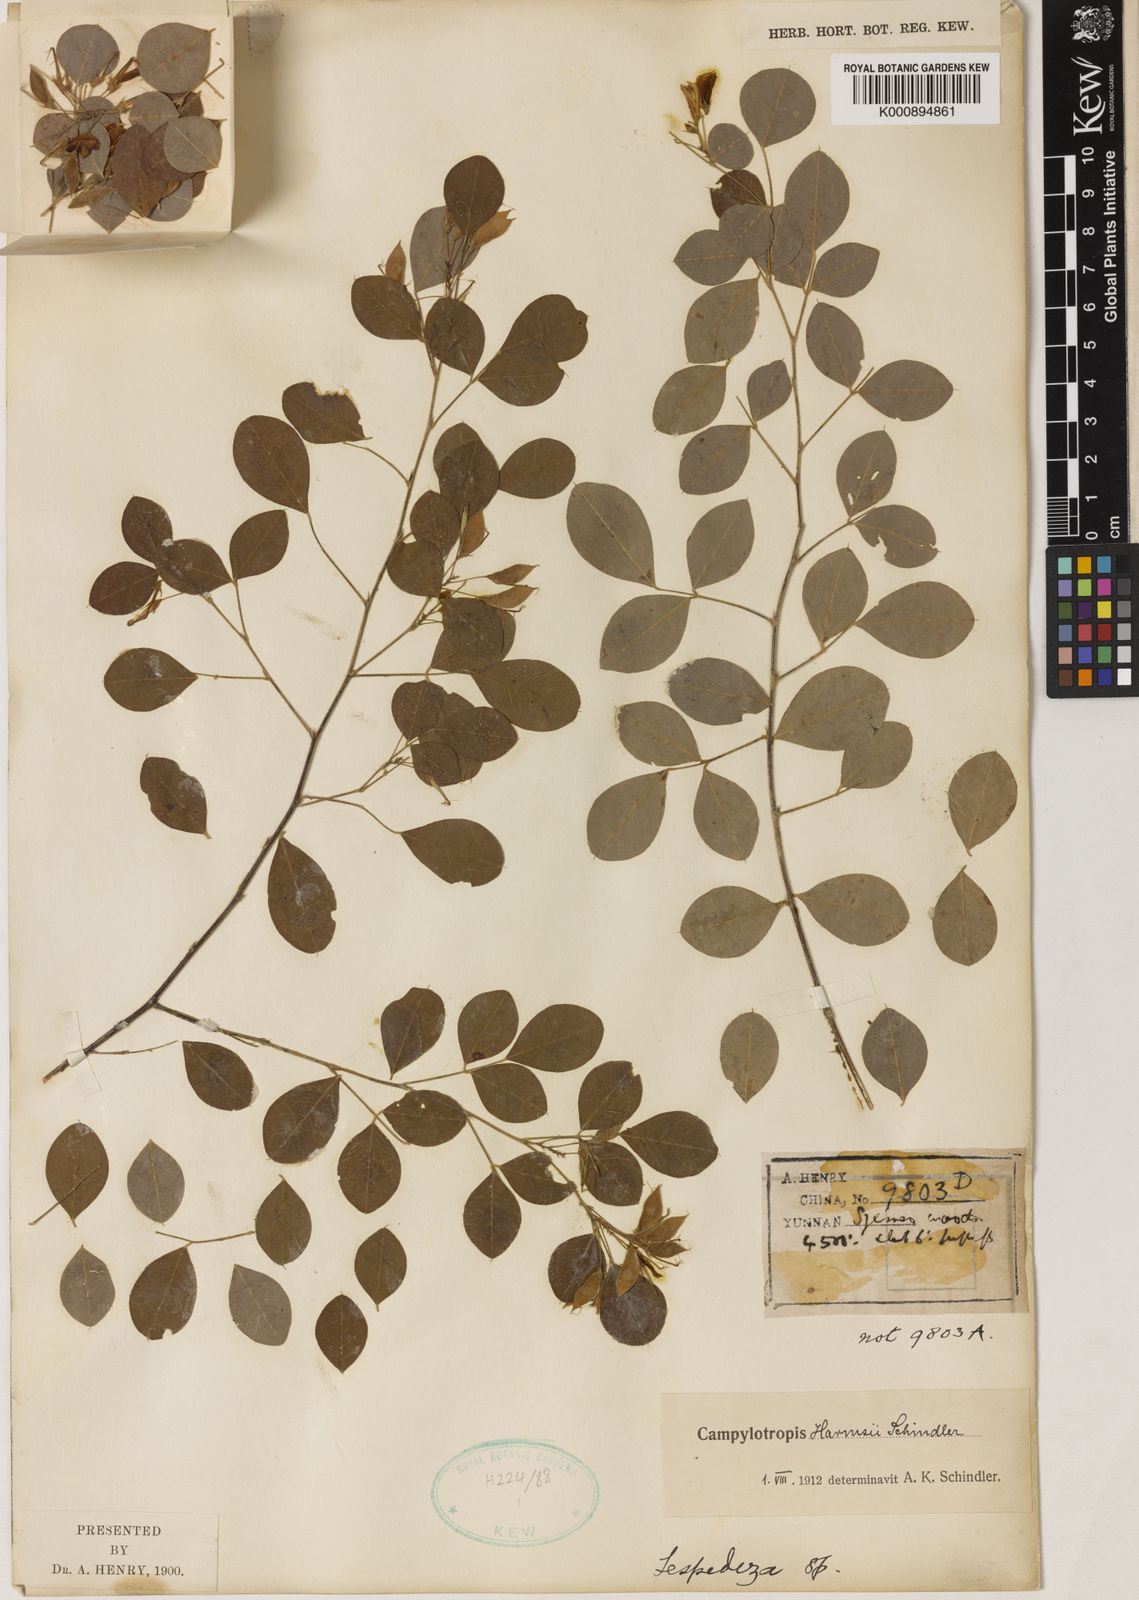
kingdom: Plantae
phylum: Tracheophyta
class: Magnoliopsida
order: Fabales
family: Fabaceae
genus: Campylotropis
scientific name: Campylotropis harmsii
